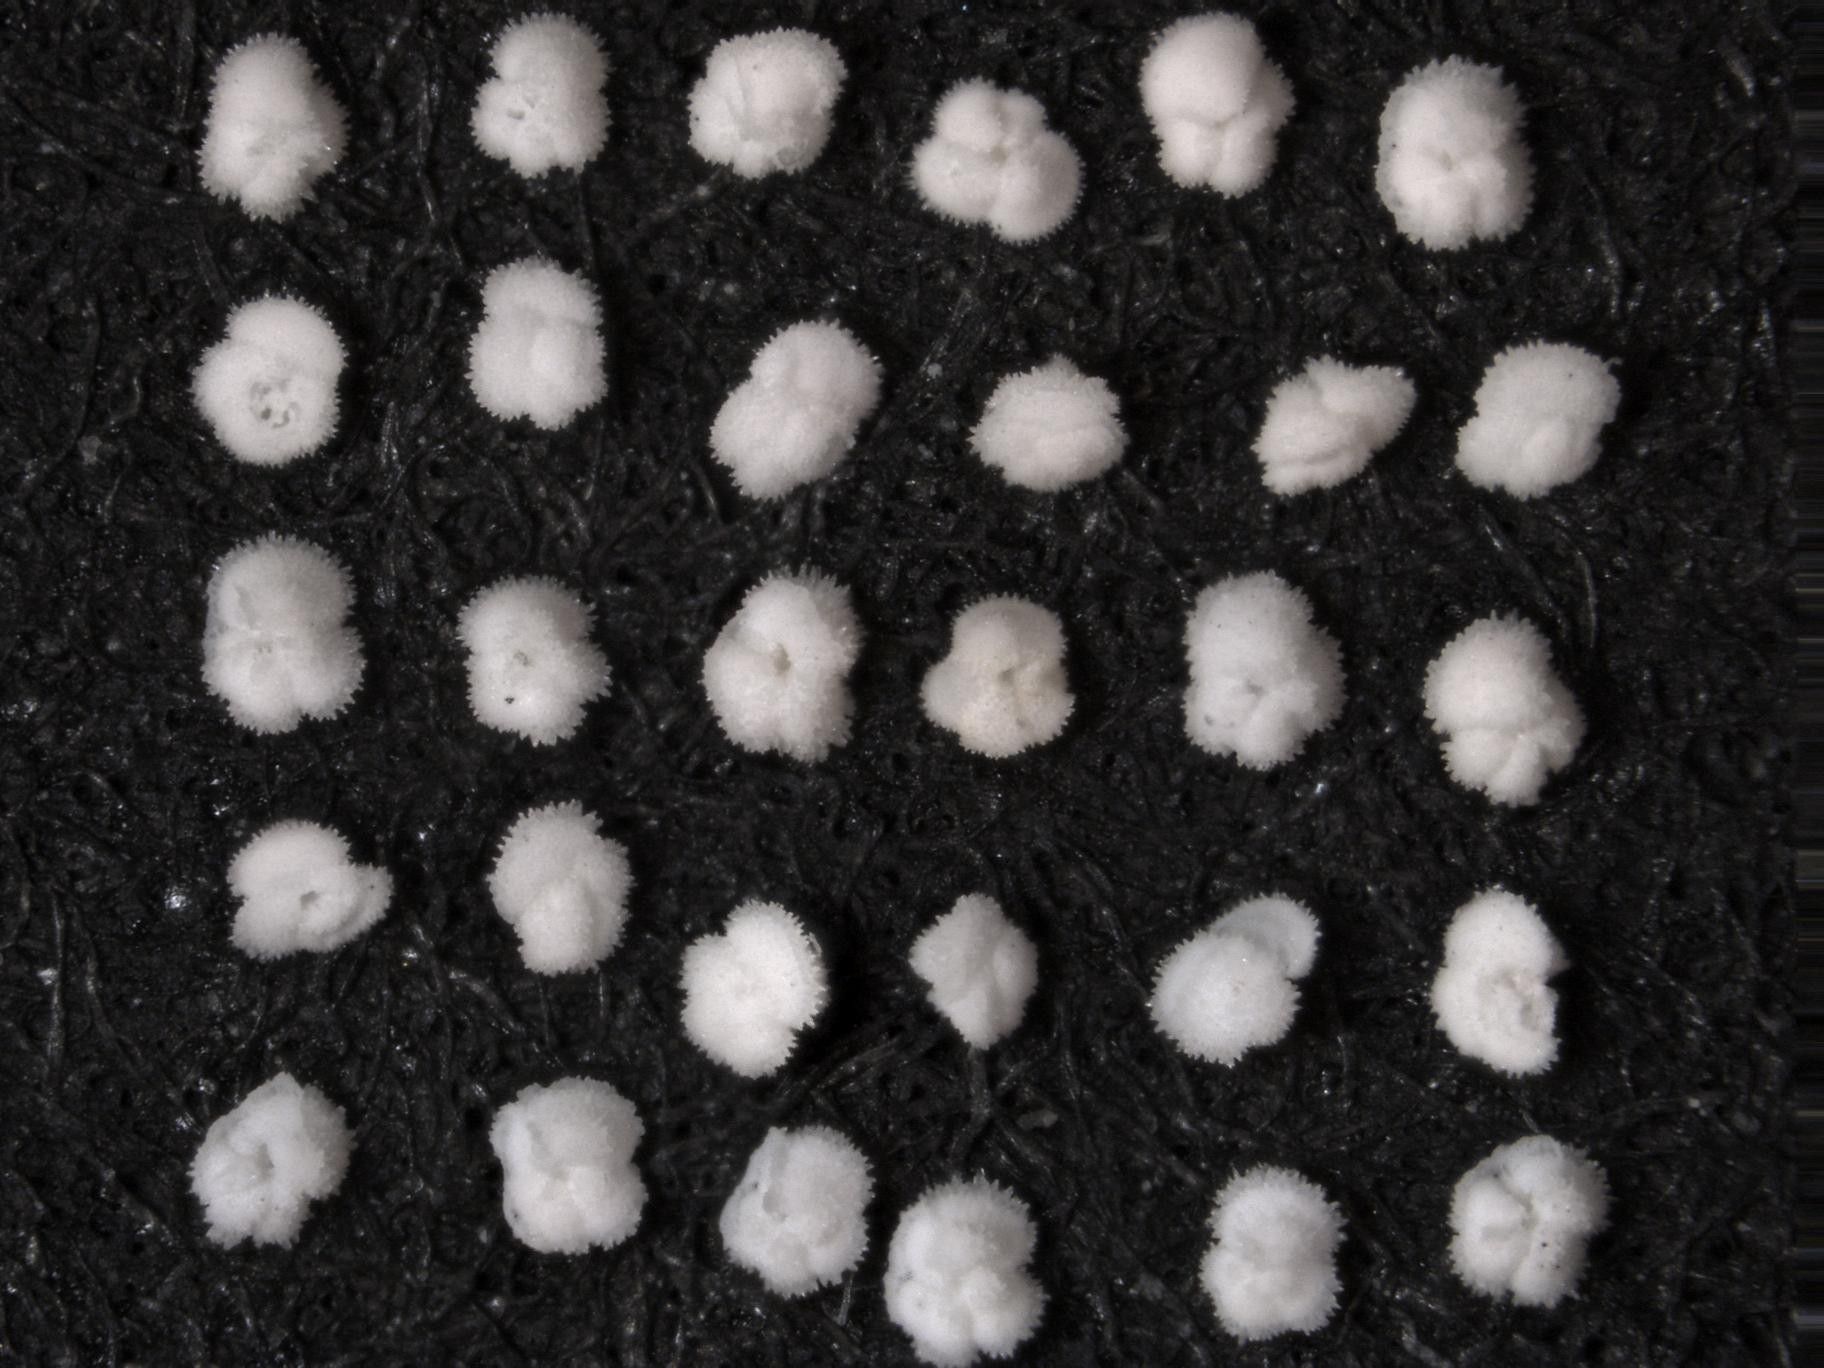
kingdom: Chromista
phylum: Foraminifera
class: Globothalamea
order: Rotaliida
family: Truncorotaloididae
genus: Morozovella
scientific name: Morozovella subbotinae
